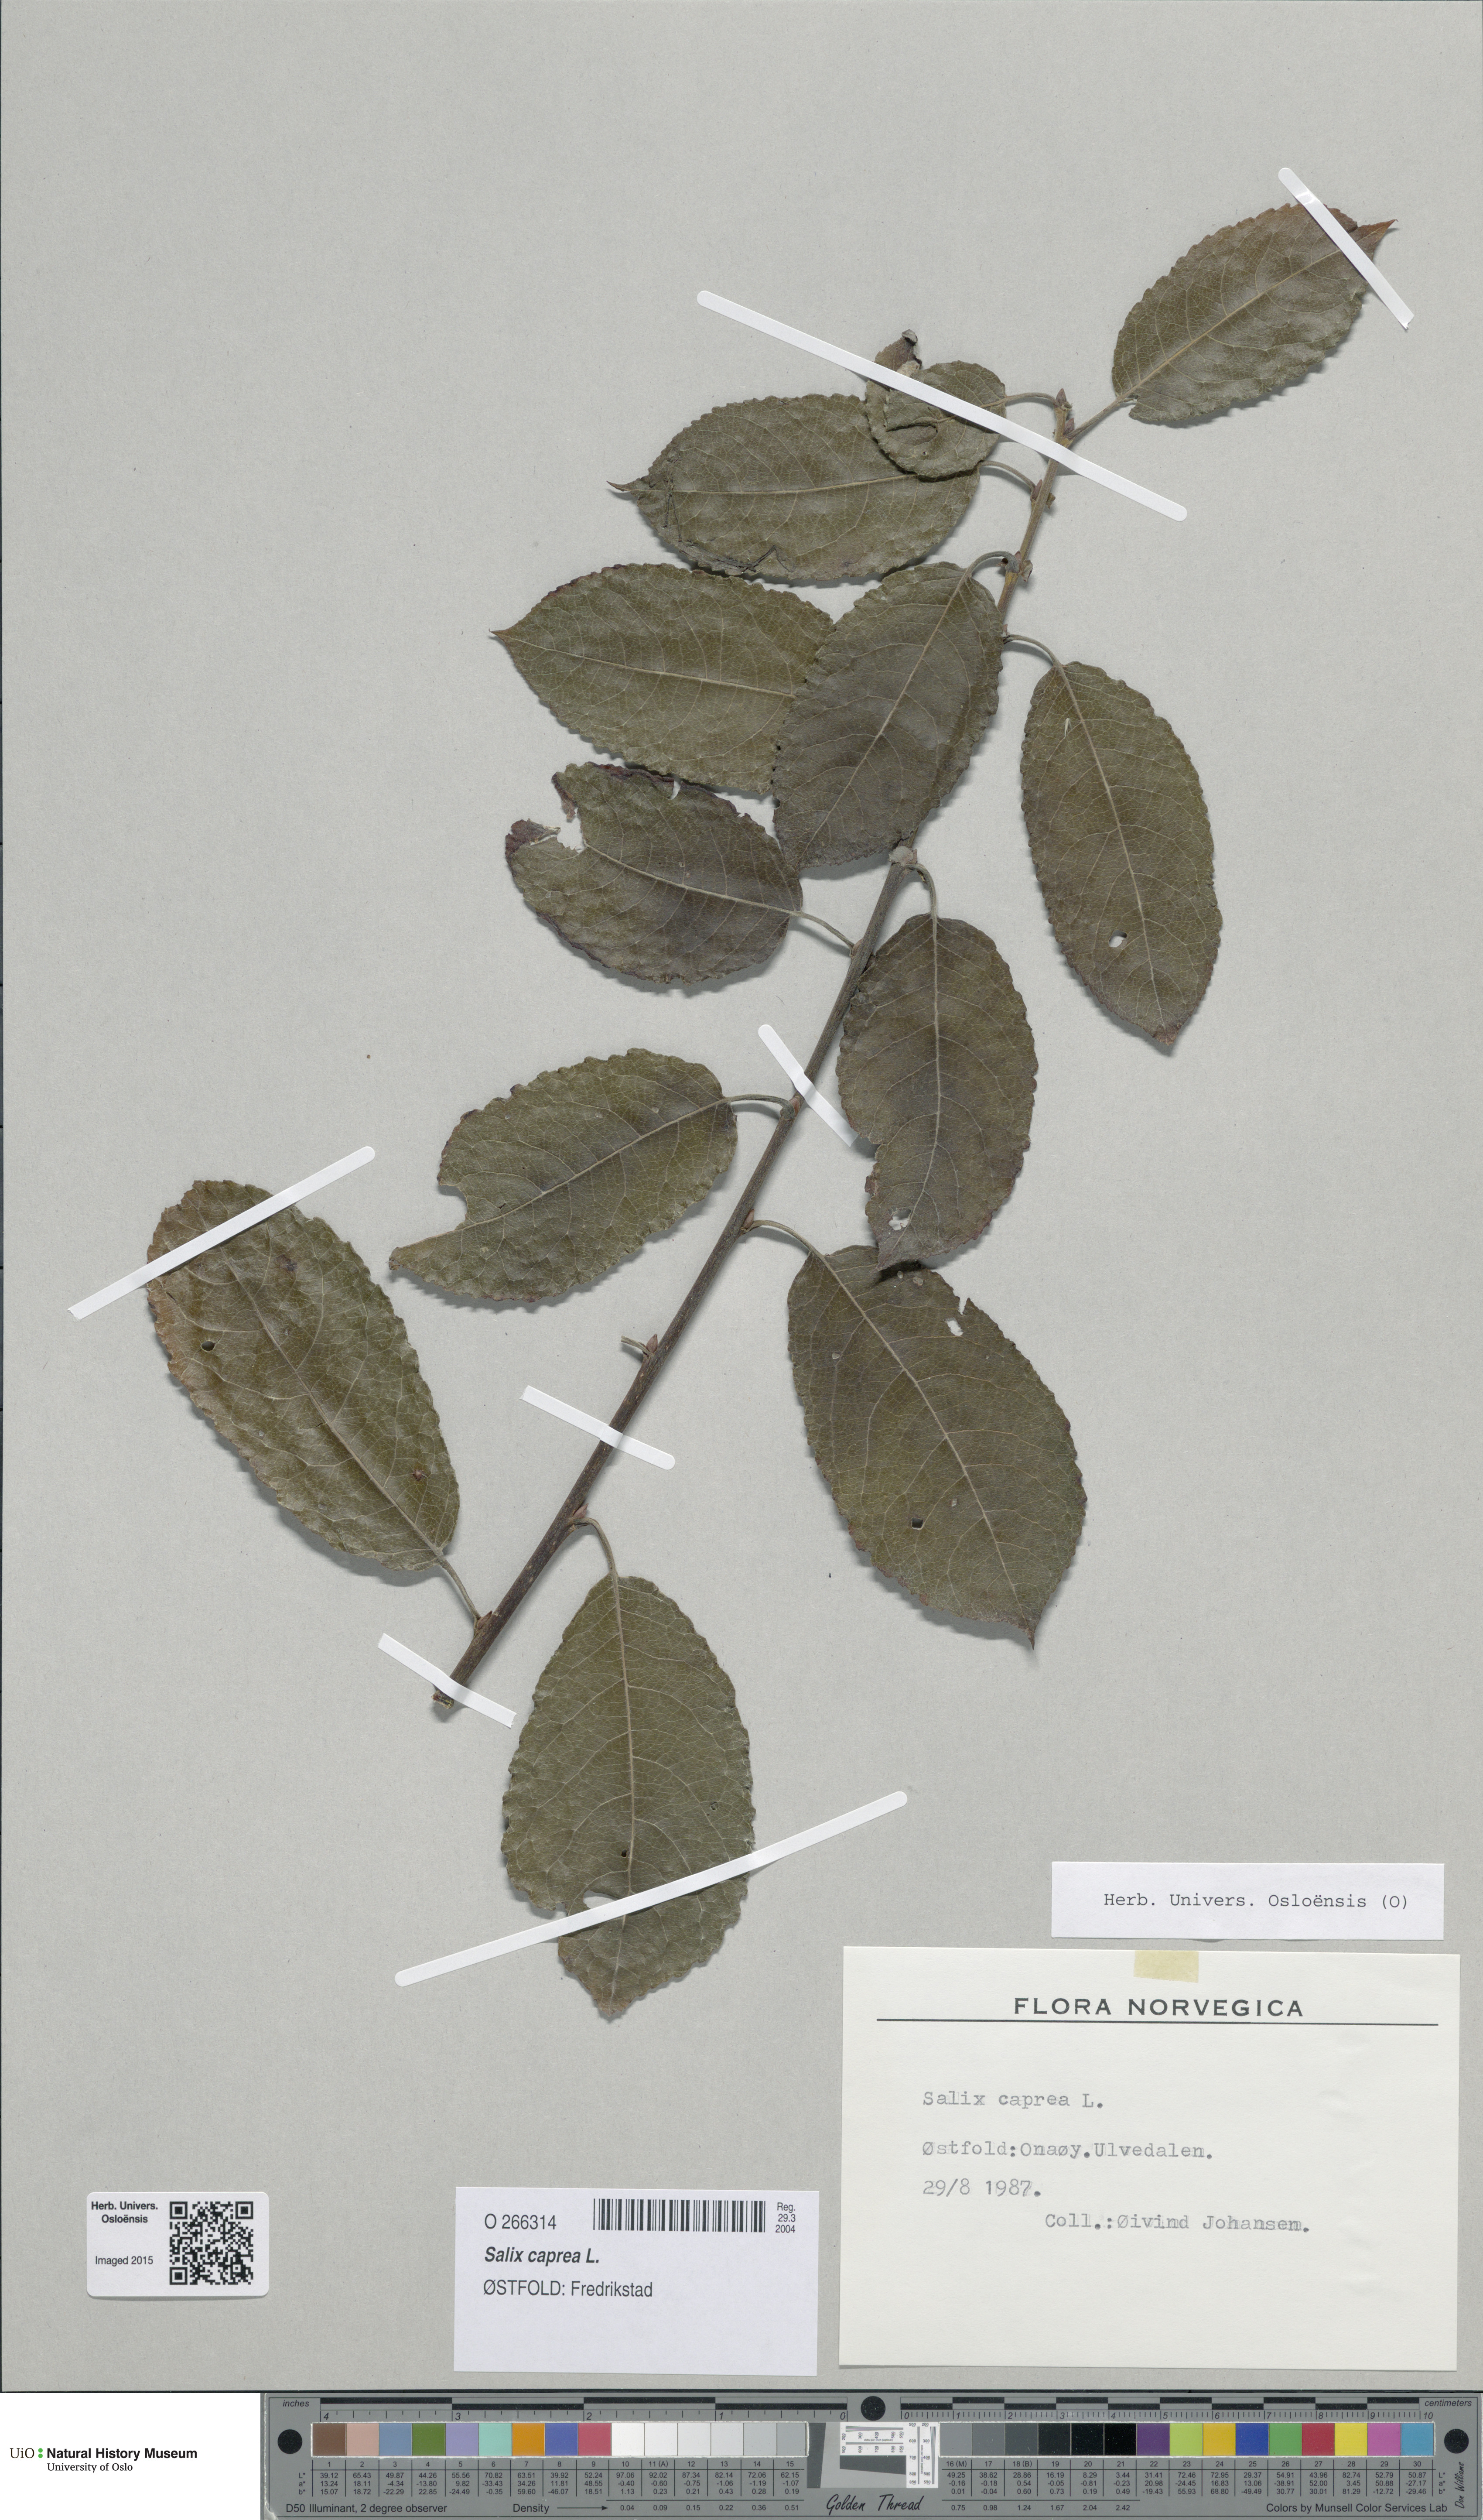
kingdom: Plantae
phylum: Tracheophyta
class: Magnoliopsida
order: Malpighiales
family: Salicaceae
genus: Salix
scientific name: Salix caprea
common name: Goat willow
